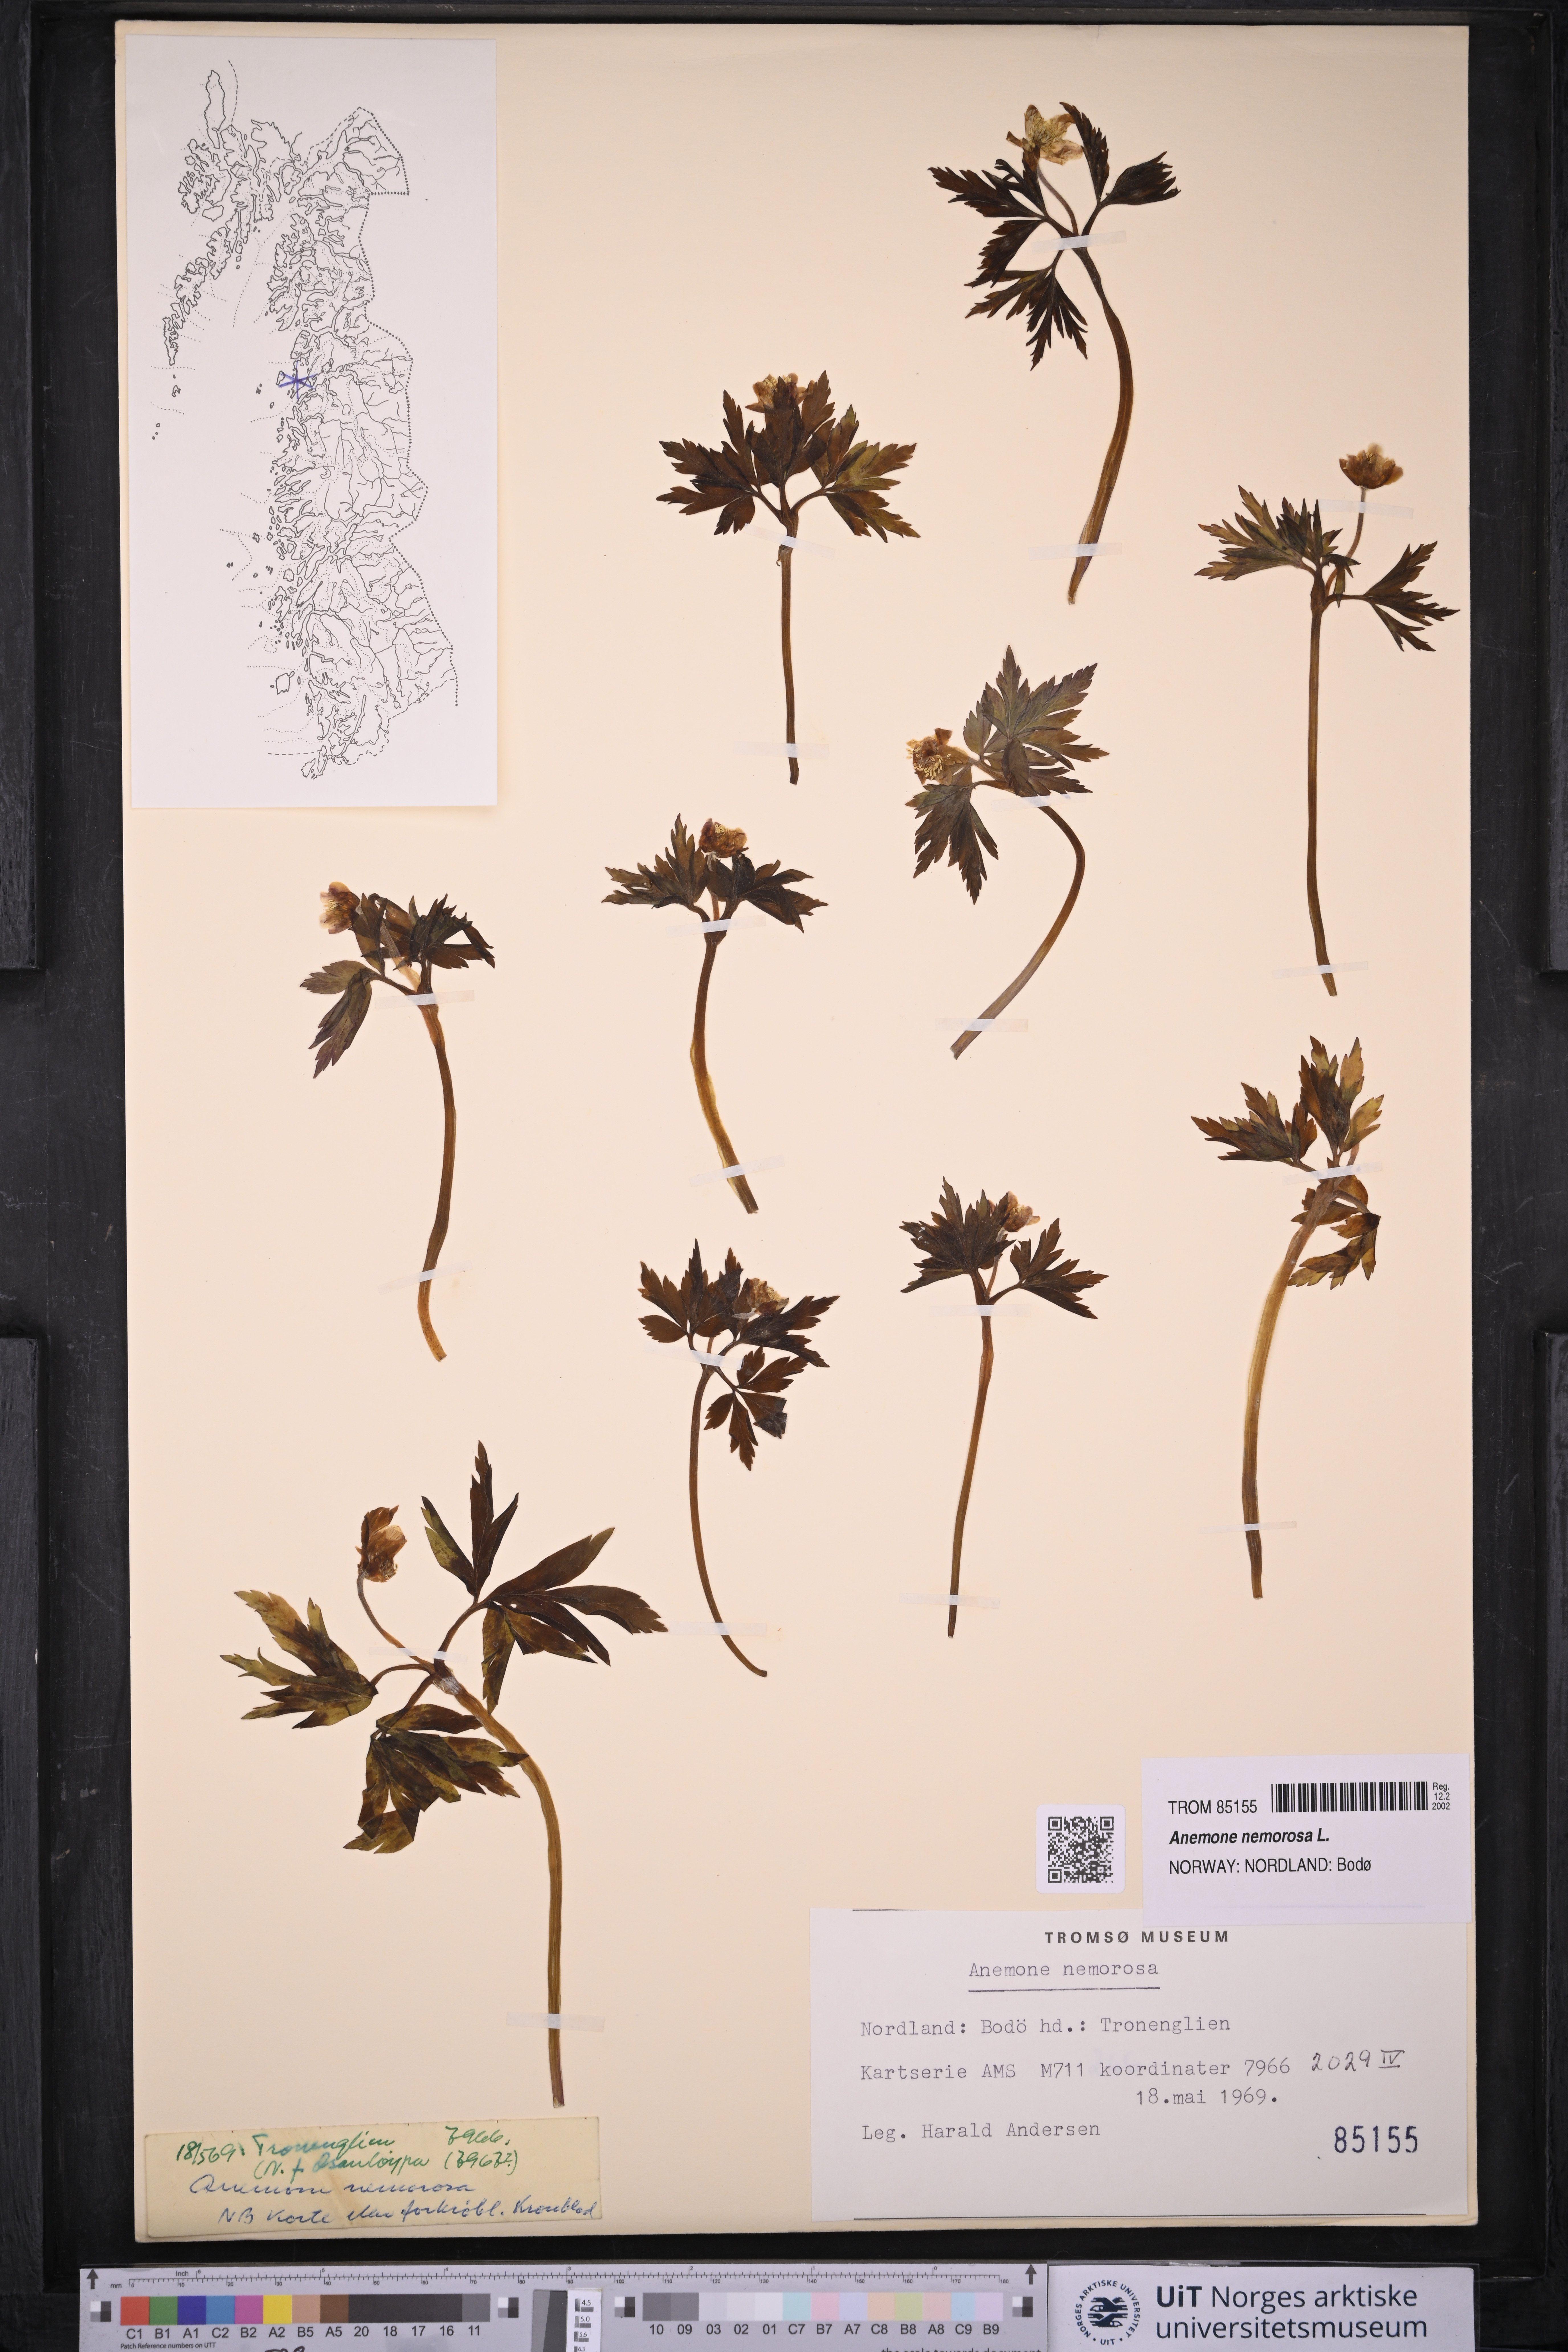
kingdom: Plantae
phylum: Tracheophyta
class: Magnoliopsida
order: Ranunculales
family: Ranunculaceae
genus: Anemone
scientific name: Anemone nemorosa
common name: Wood anemone
